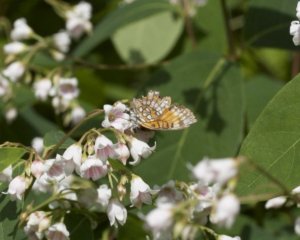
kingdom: Animalia
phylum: Arthropoda
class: Insecta
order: Lepidoptera
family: Nymphalidae
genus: Chlosyne
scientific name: Chlosyne harrisii
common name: Harris's Checkerspot
